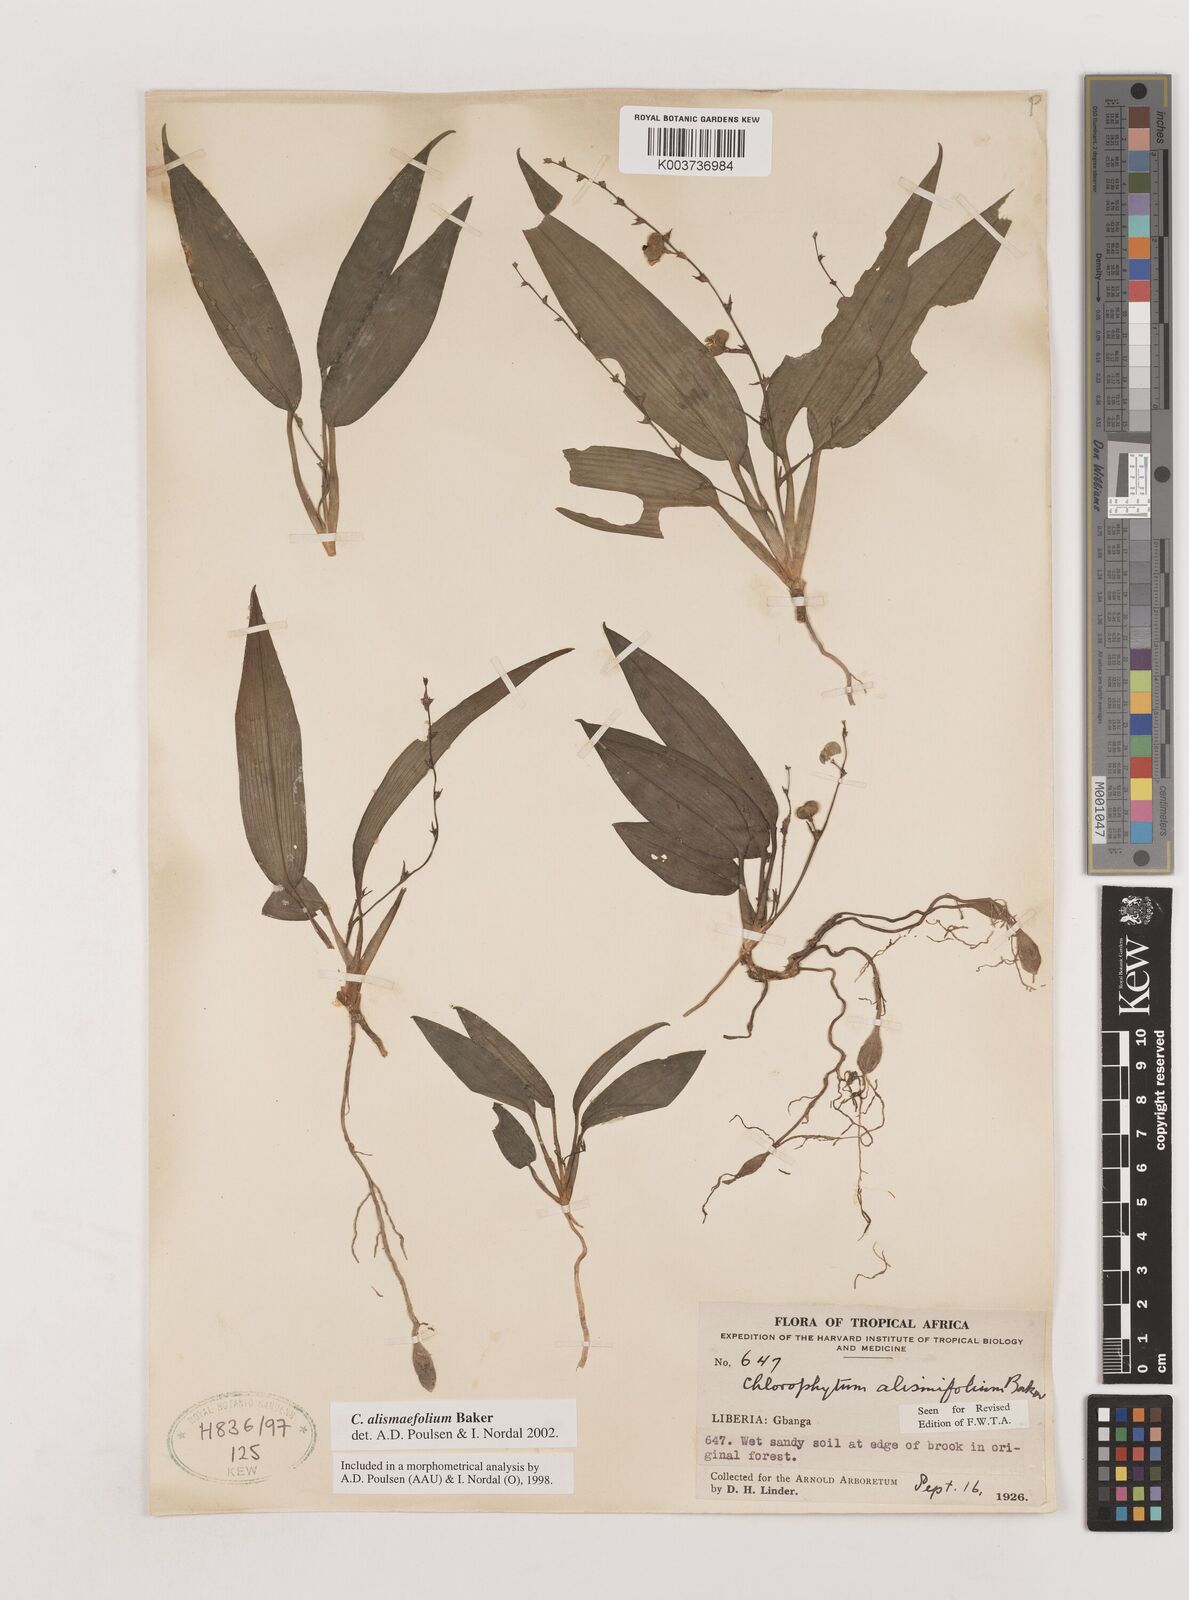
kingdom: Plantae
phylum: Tracheophyta
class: Liliopsida
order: Asparagales
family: Asparagaceae
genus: Chlorophytum
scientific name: Chlorophytum alismifolium
